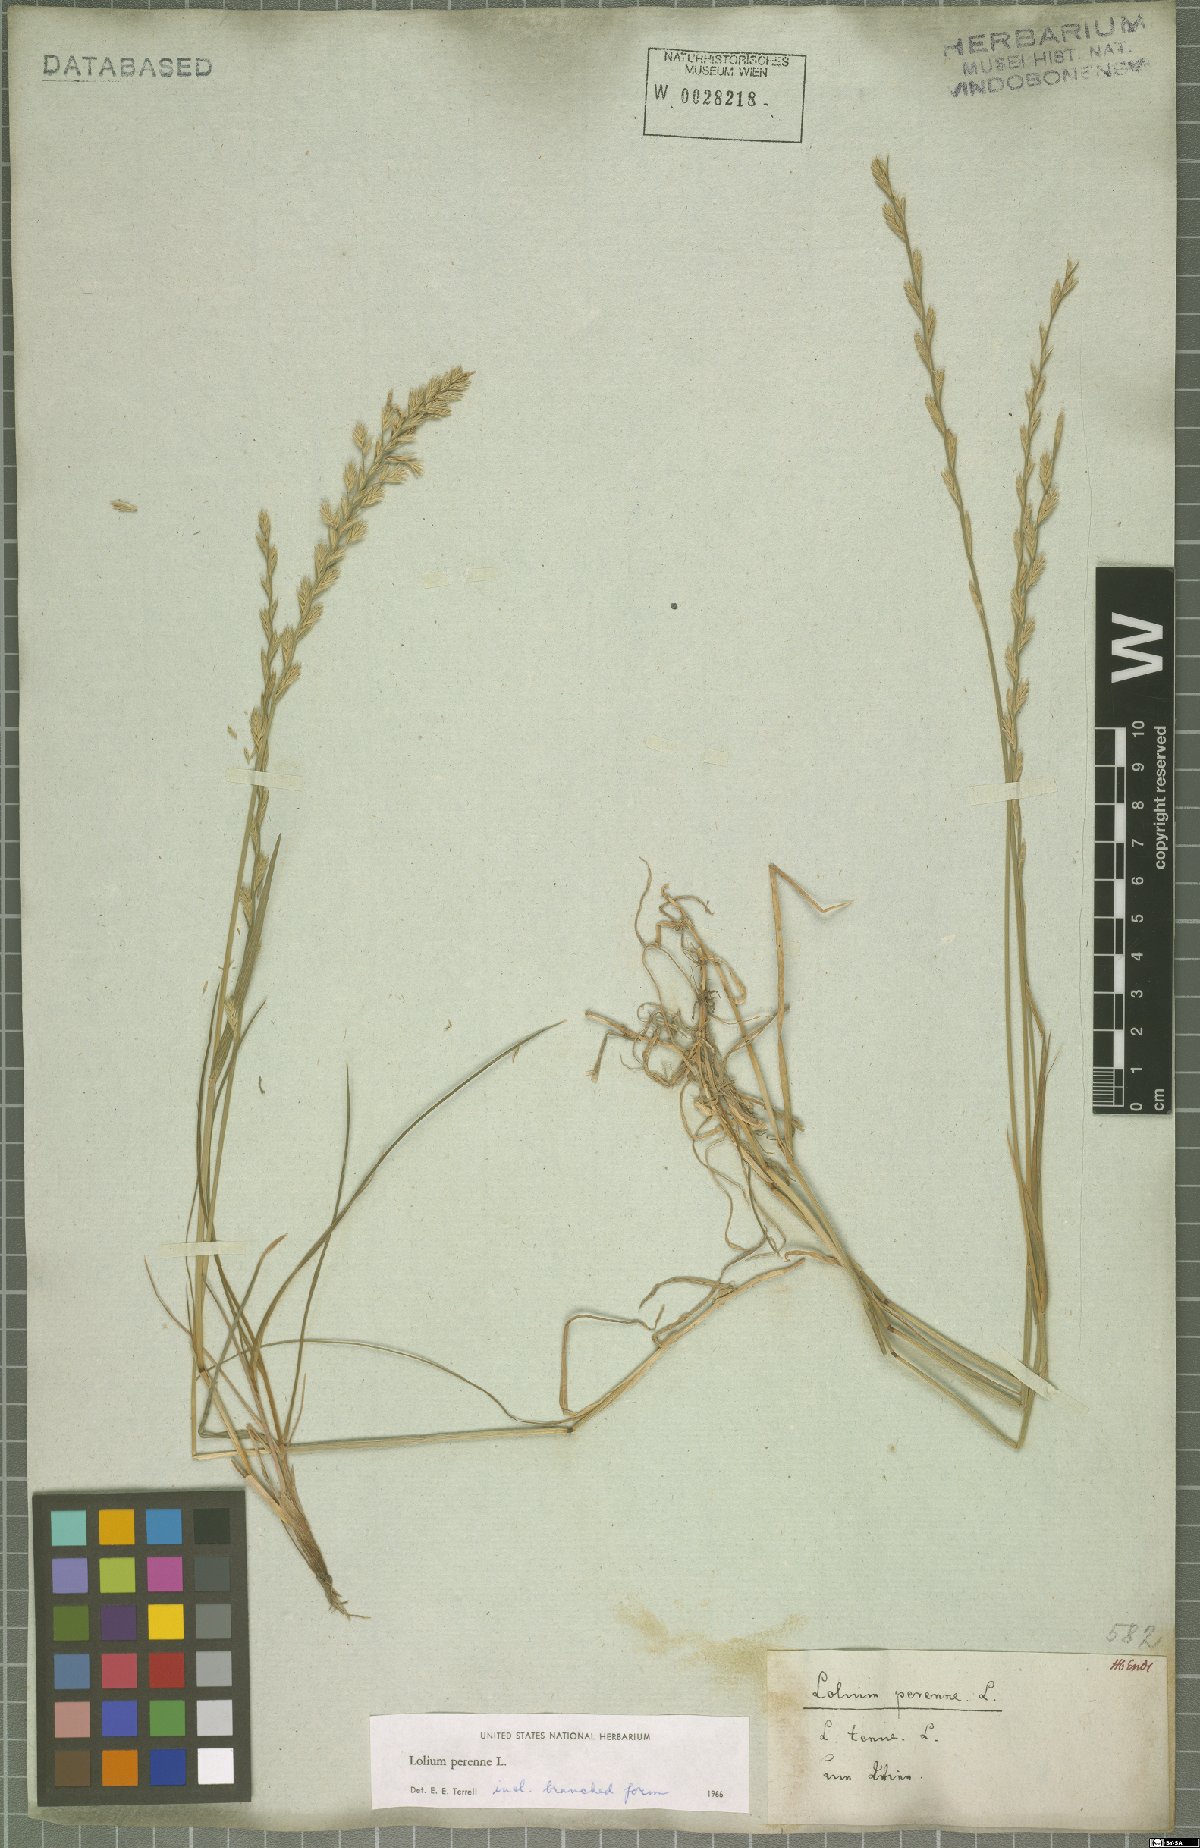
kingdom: Plantae
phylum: Tracheophyta
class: Liliopsida
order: Poales
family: Poaceae
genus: Lolium
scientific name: Lolium perenne
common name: Perennial ryegrass
